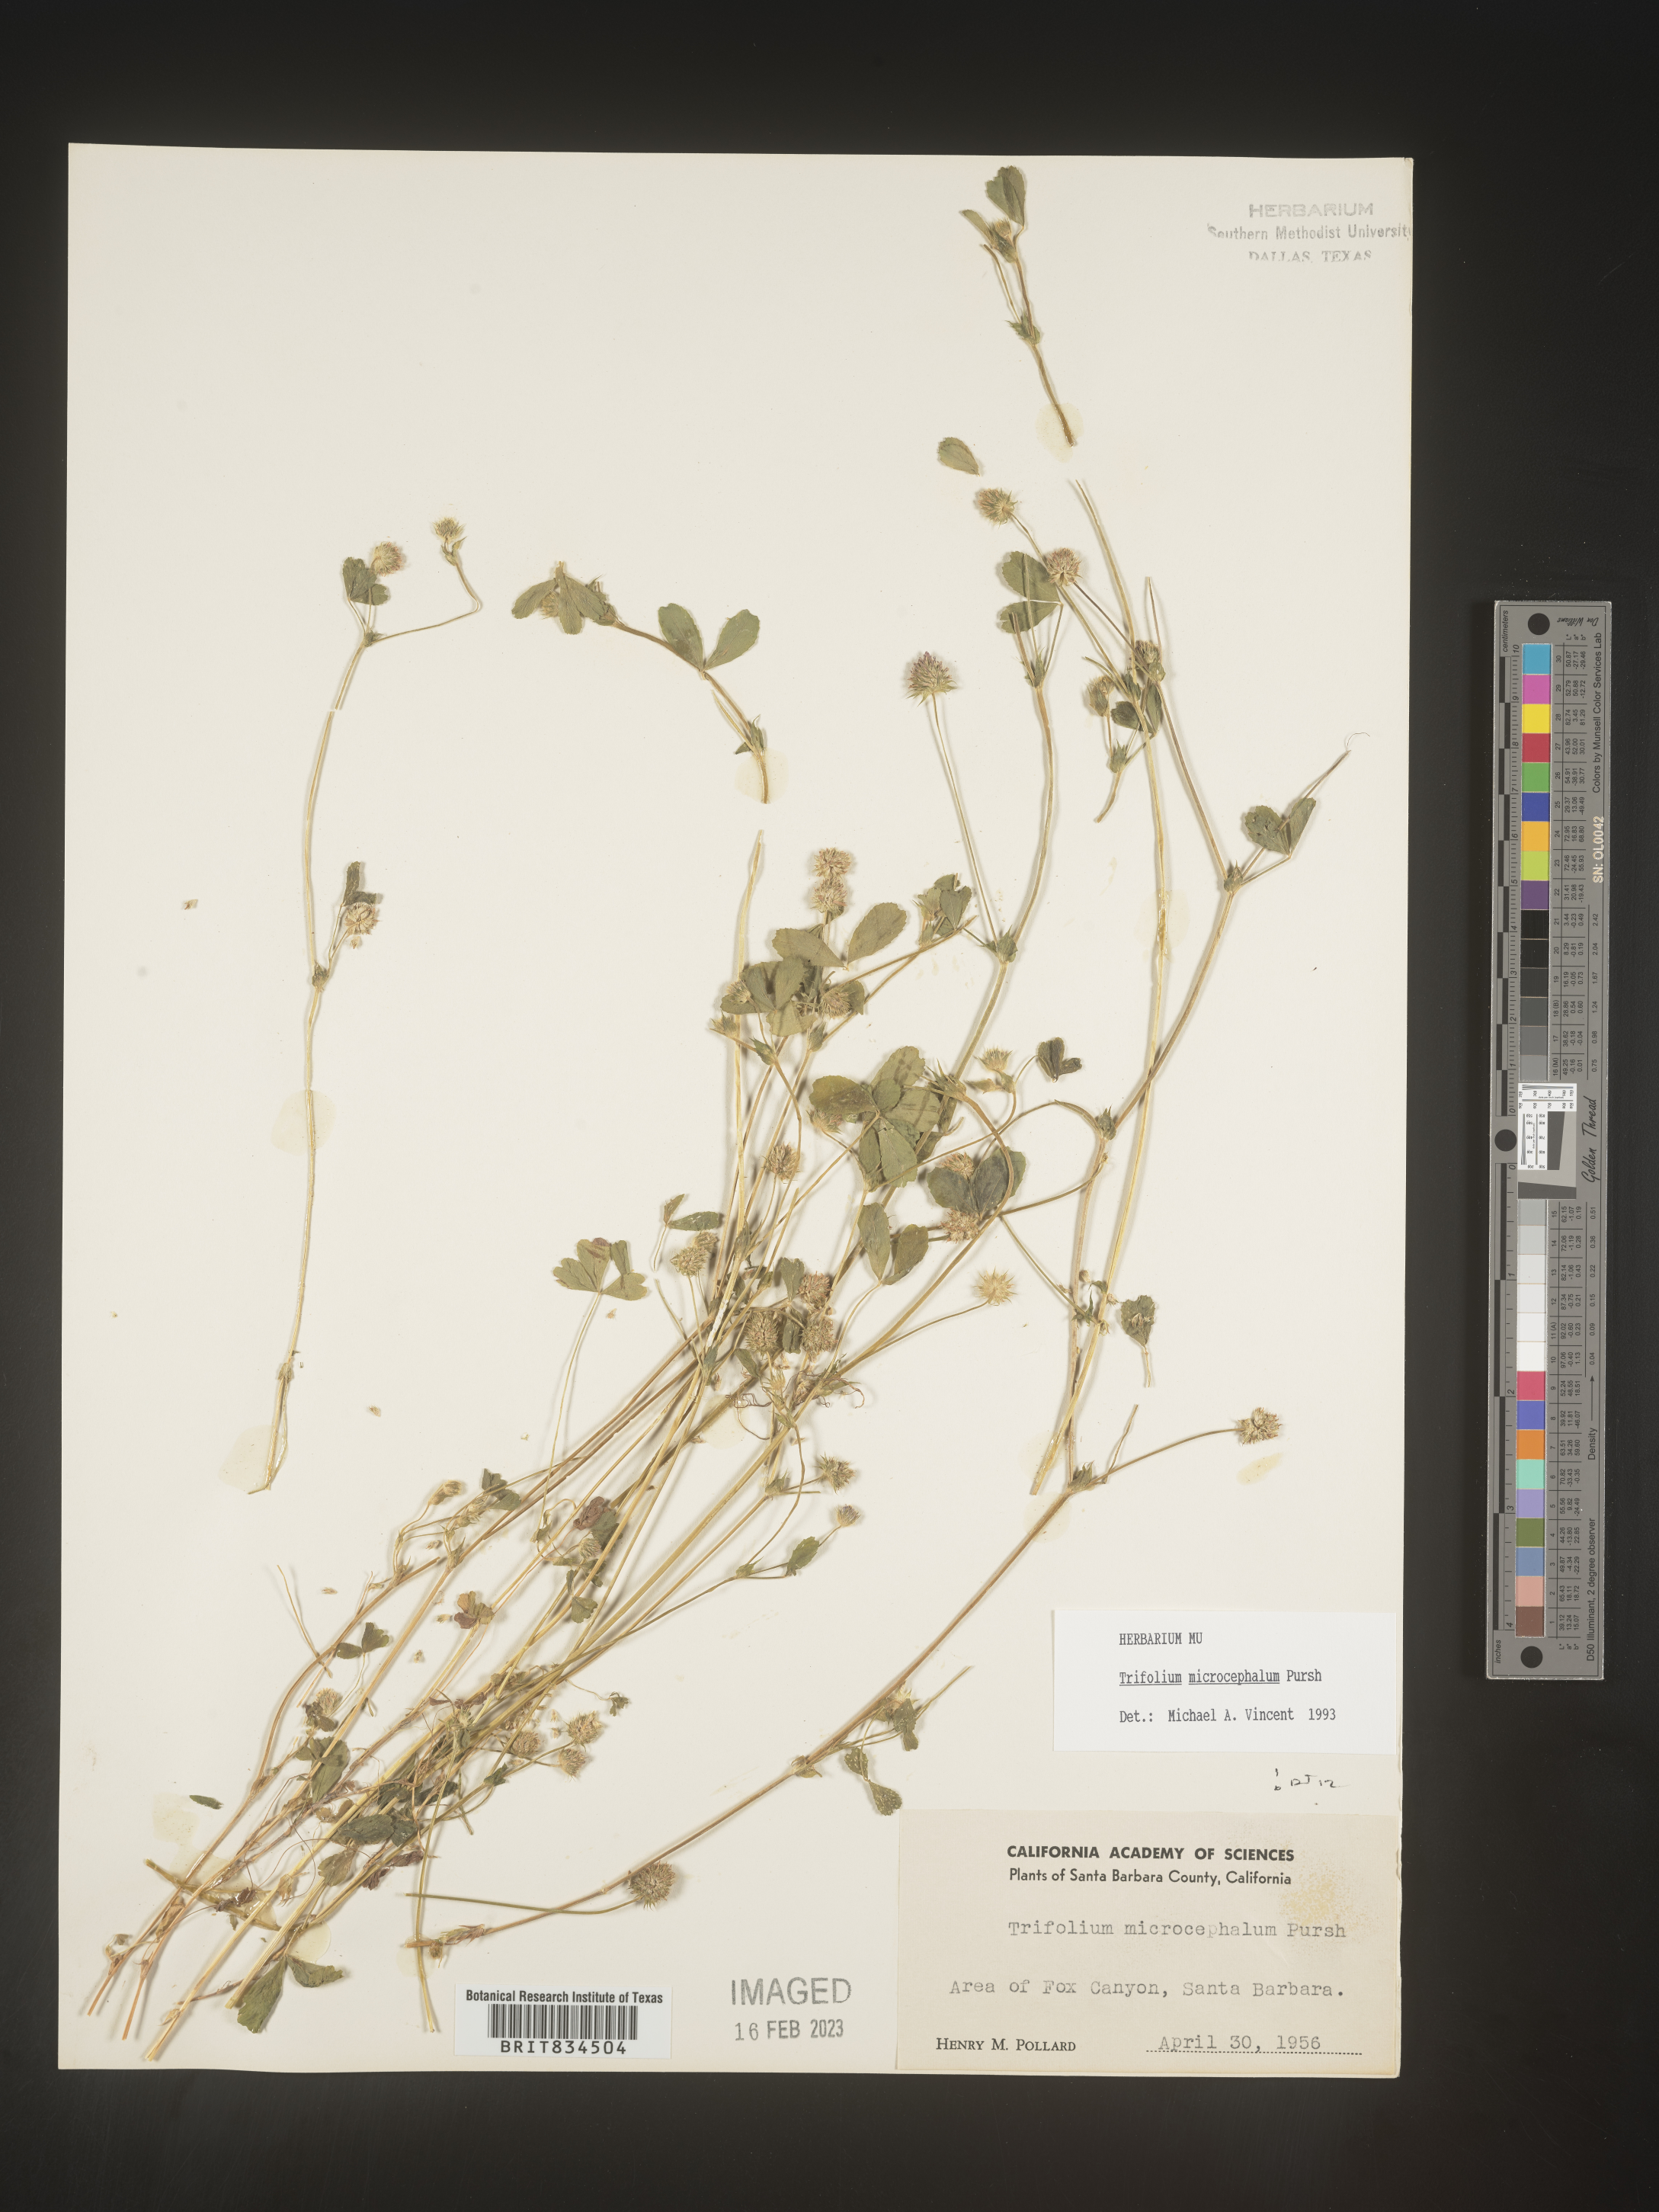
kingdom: Plantae
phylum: Tracheophyta
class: Magnoliopsida
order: Fabales
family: Fabaceae
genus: Trifolium
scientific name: Trifolium
